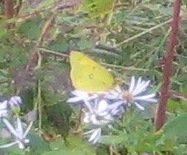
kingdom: Animalia
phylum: Arthropoda
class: Insecta
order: Lepidoptera
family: Pieridae
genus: Colias
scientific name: Colias eurytheme
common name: Orange Sulphur
